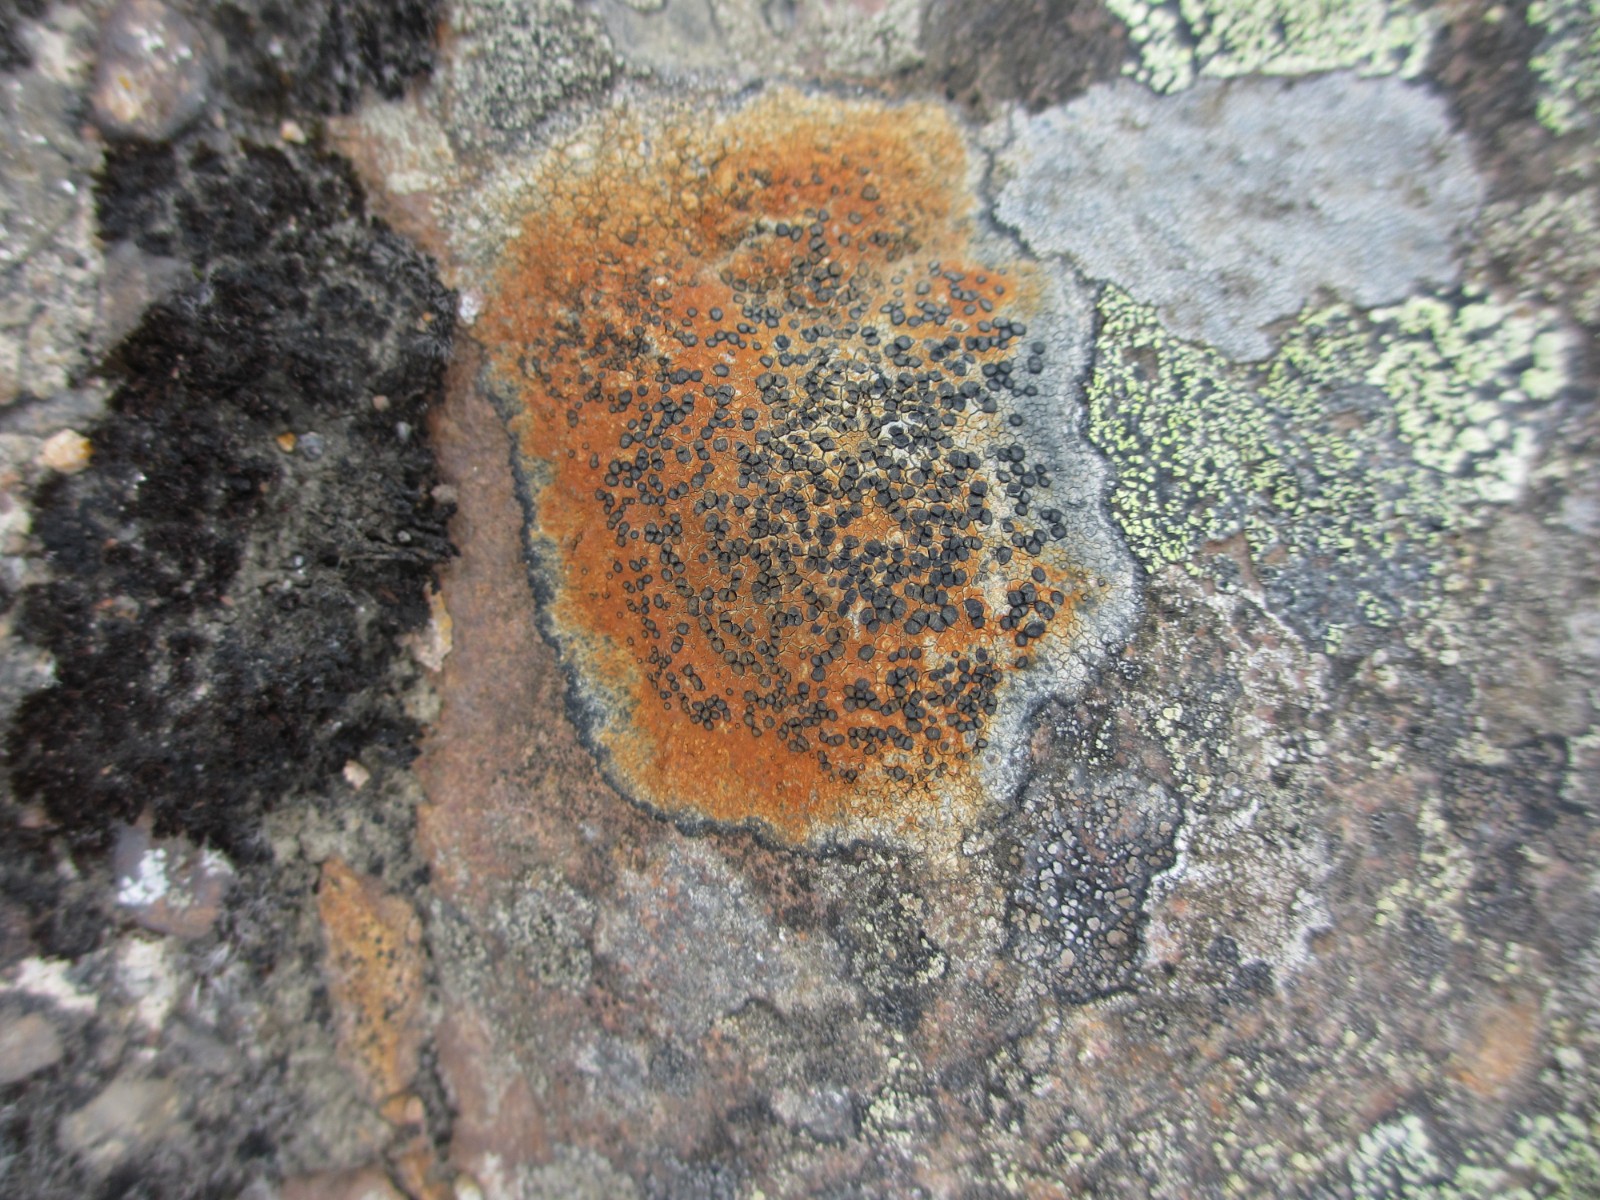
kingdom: Fungi
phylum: Ascomycota
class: Lecanoromycetes
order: Lecideales
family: Lecideaceae
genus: Porpidia
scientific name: Porpidia
